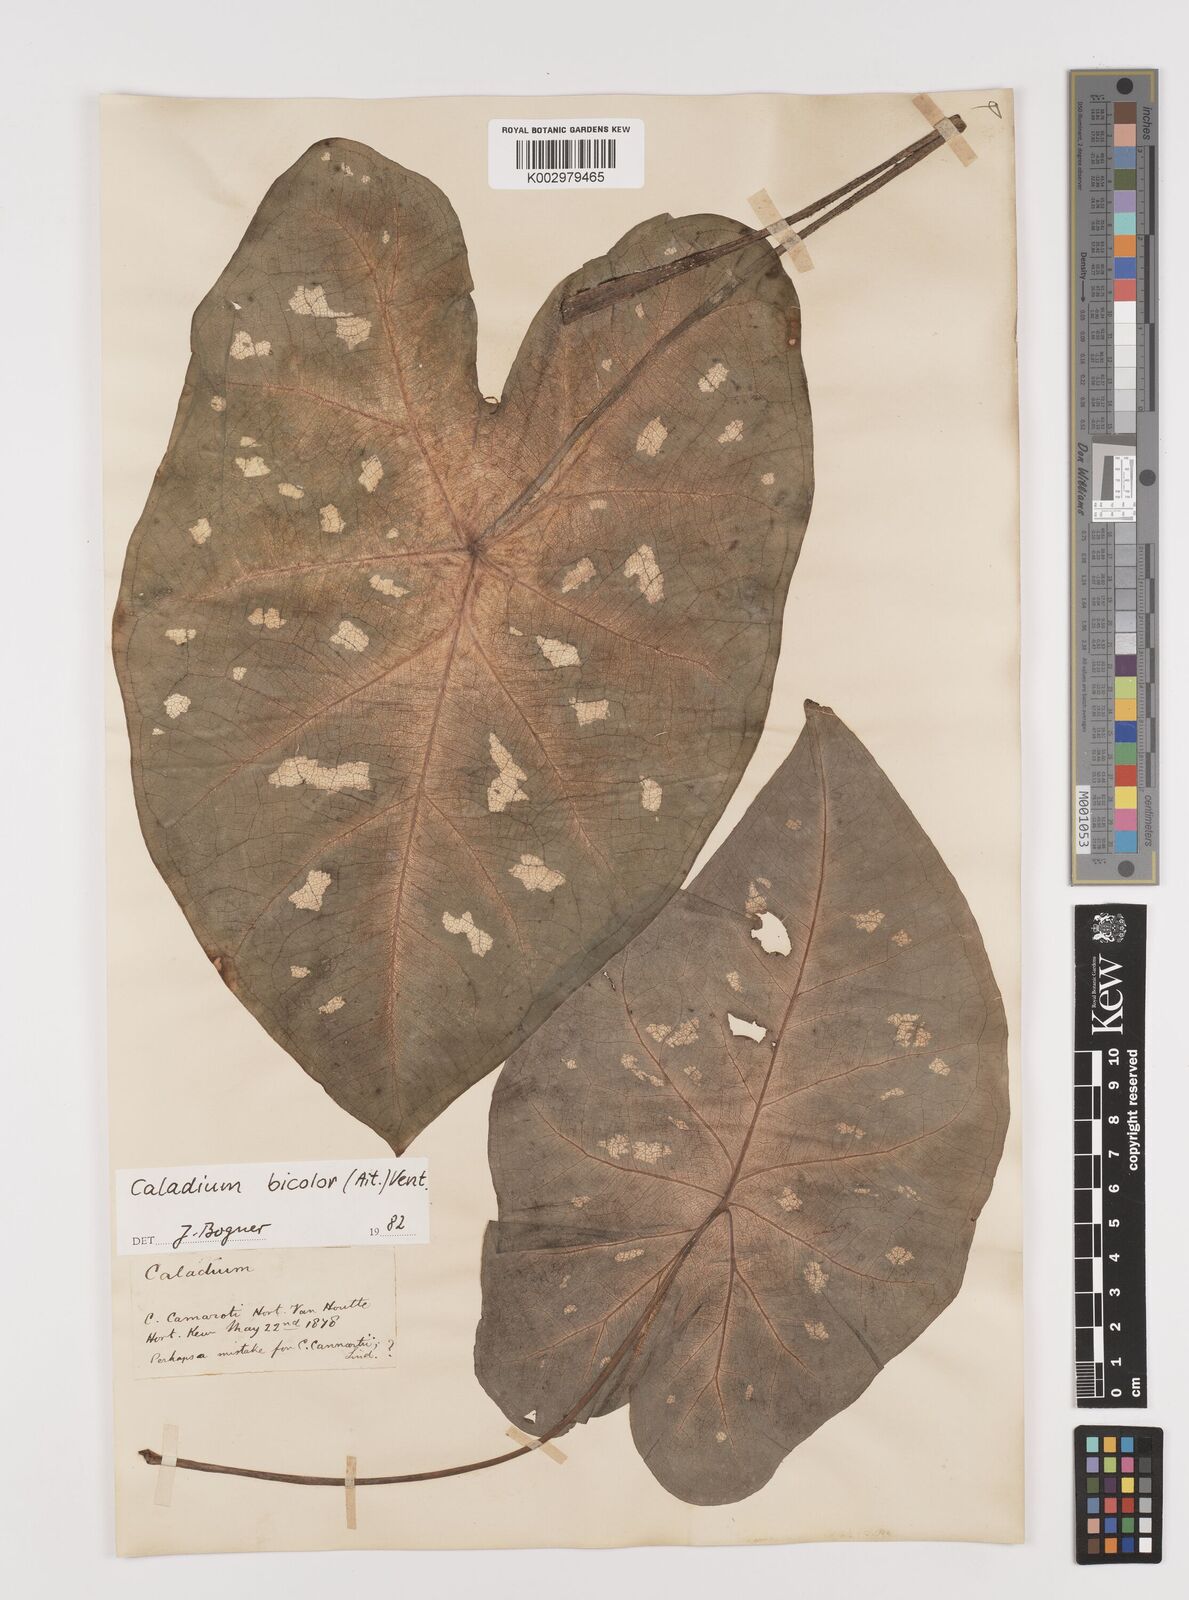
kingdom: Plantae
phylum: Tracheophyta
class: Liliopsida
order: Alismatales
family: Araceae
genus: Caladium
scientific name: Caladium bicolor
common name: Artist's pallet
